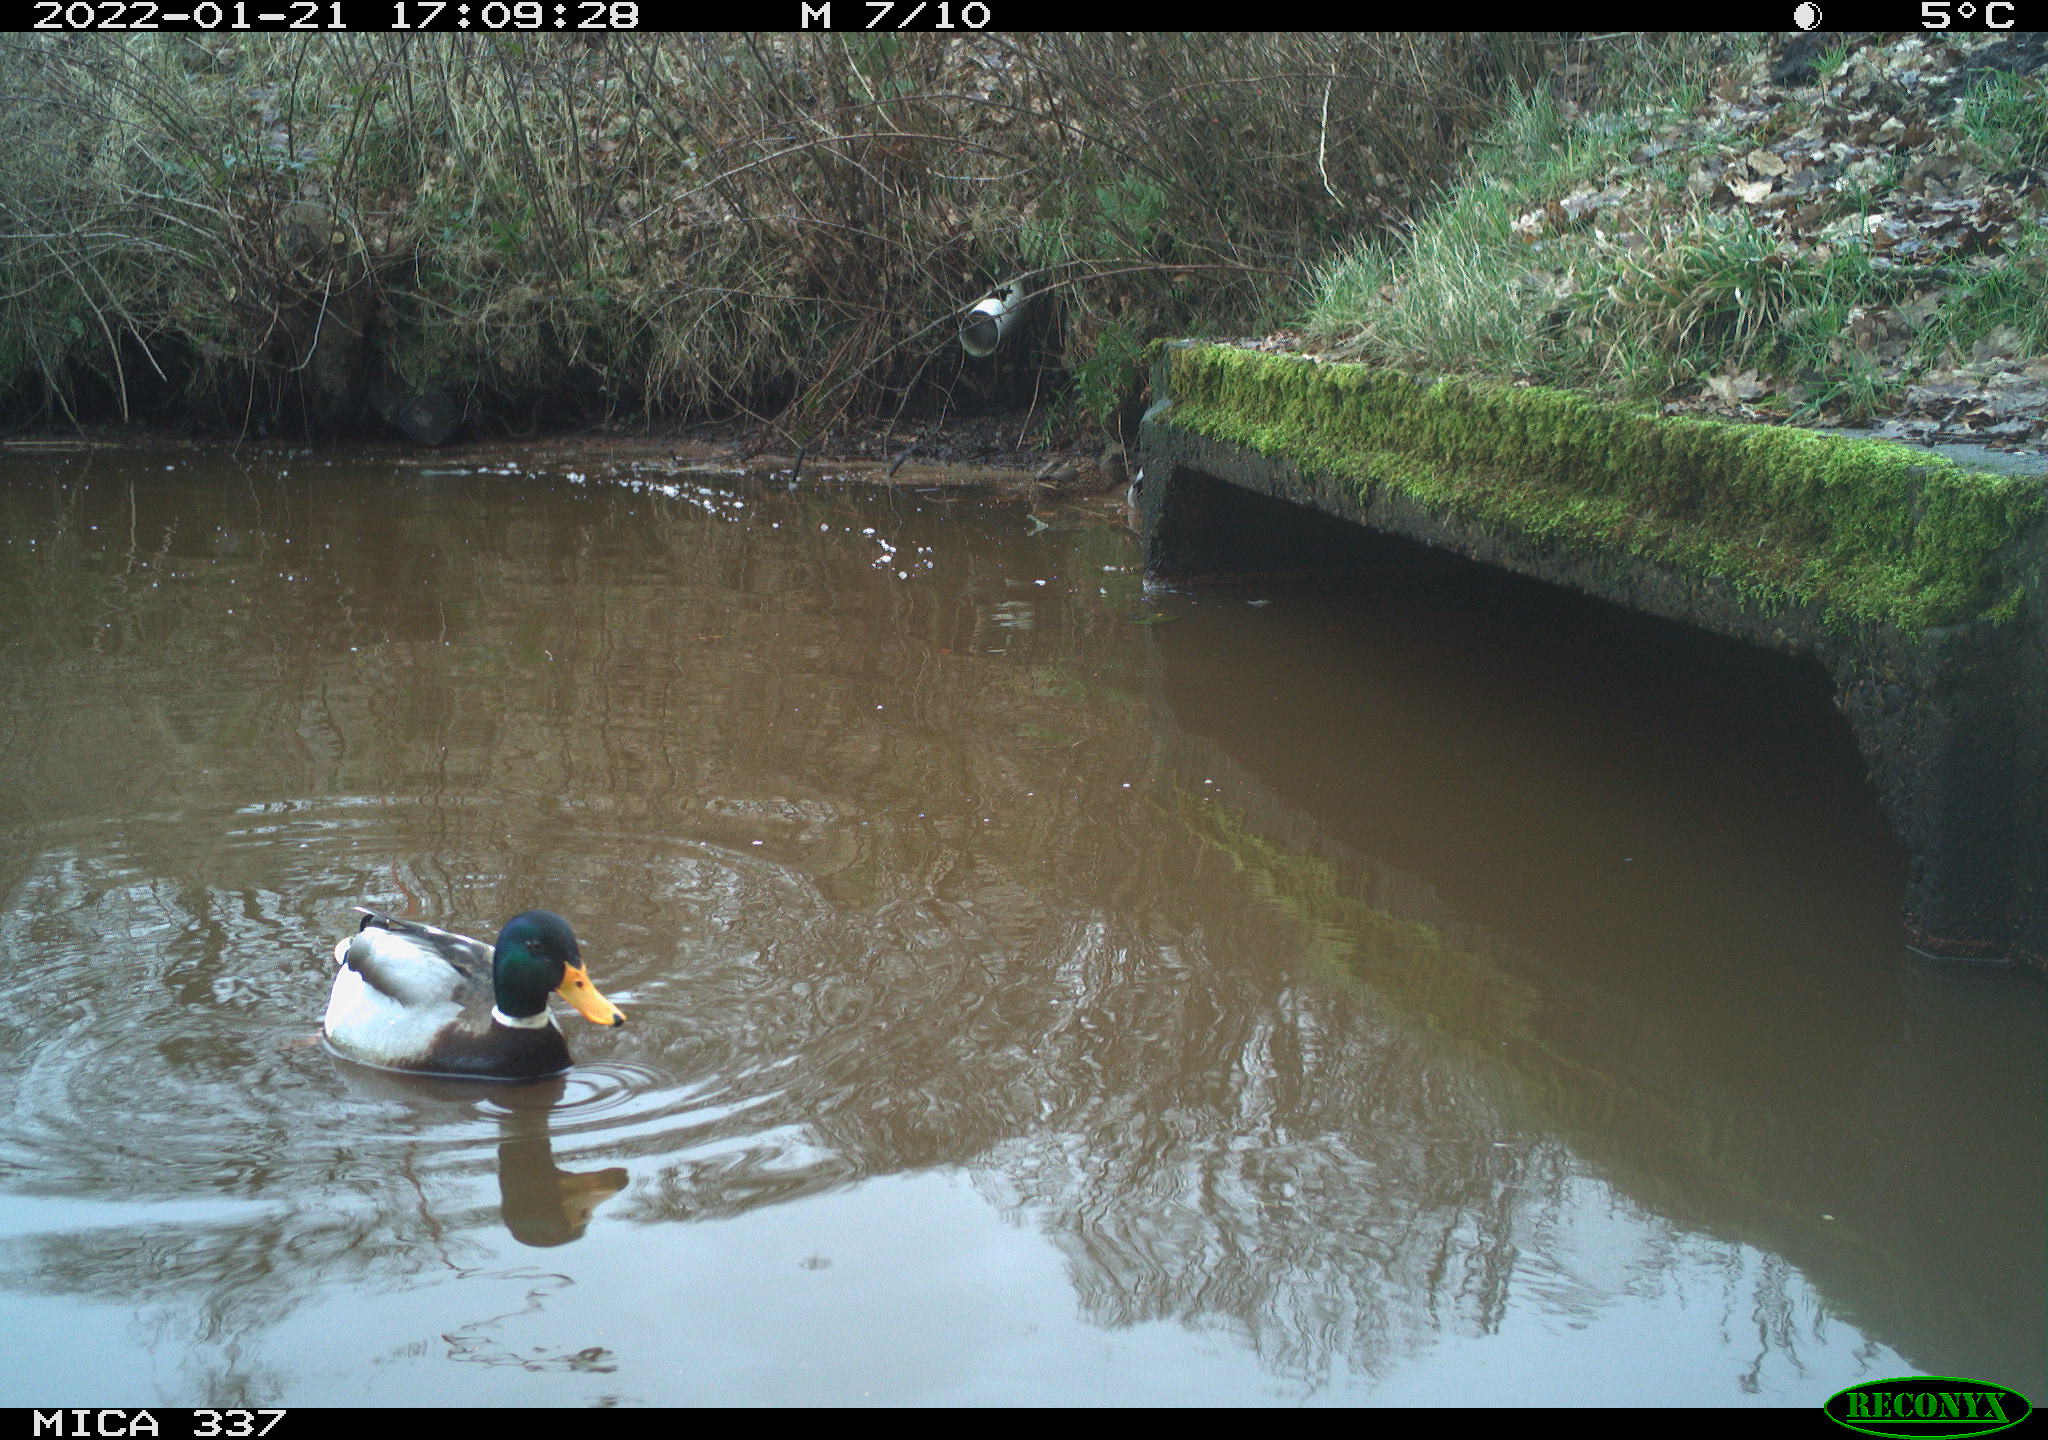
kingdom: Animalia
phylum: Chordata
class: Aves
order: Anseriformes
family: Anatidae
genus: Anas
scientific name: Anas platyrhynchos
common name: Mallard
